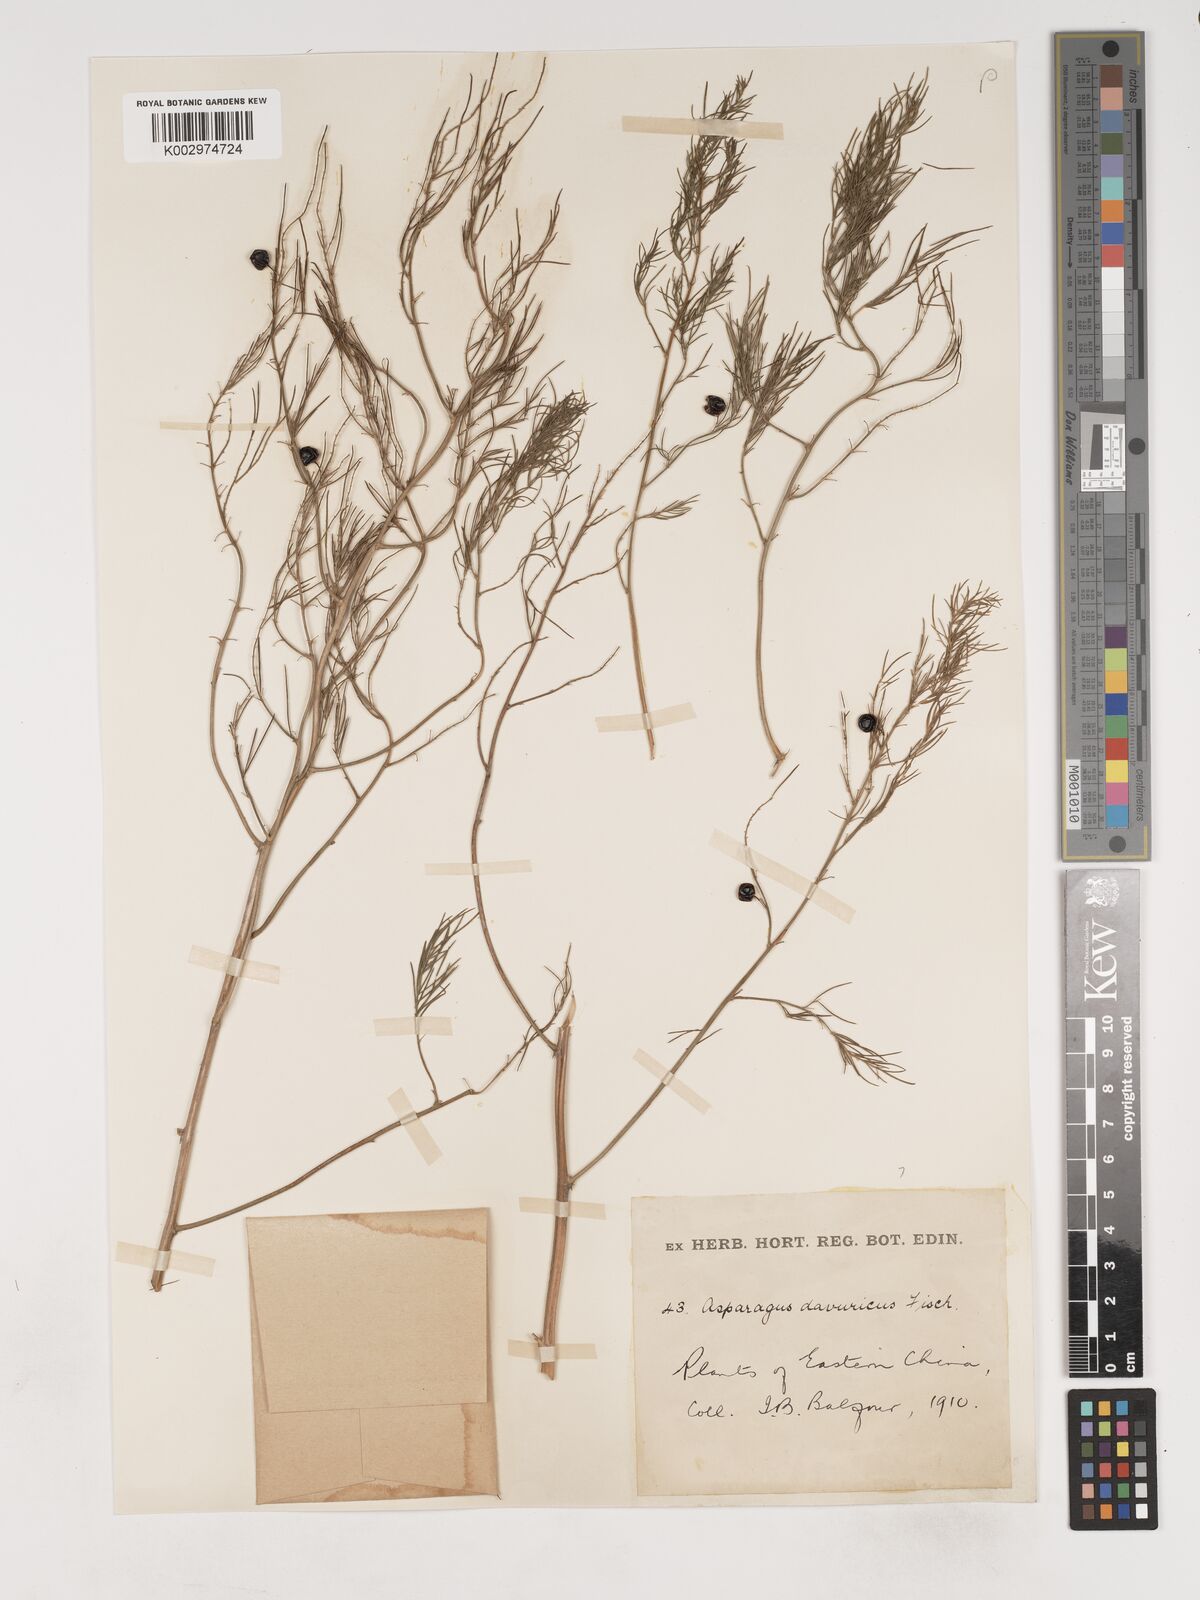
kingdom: Plantae
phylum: Tracheophyta
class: Liliopsida
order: Asparagales
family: Asparagaceae
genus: Asparagus
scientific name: Asparagus dauricus
